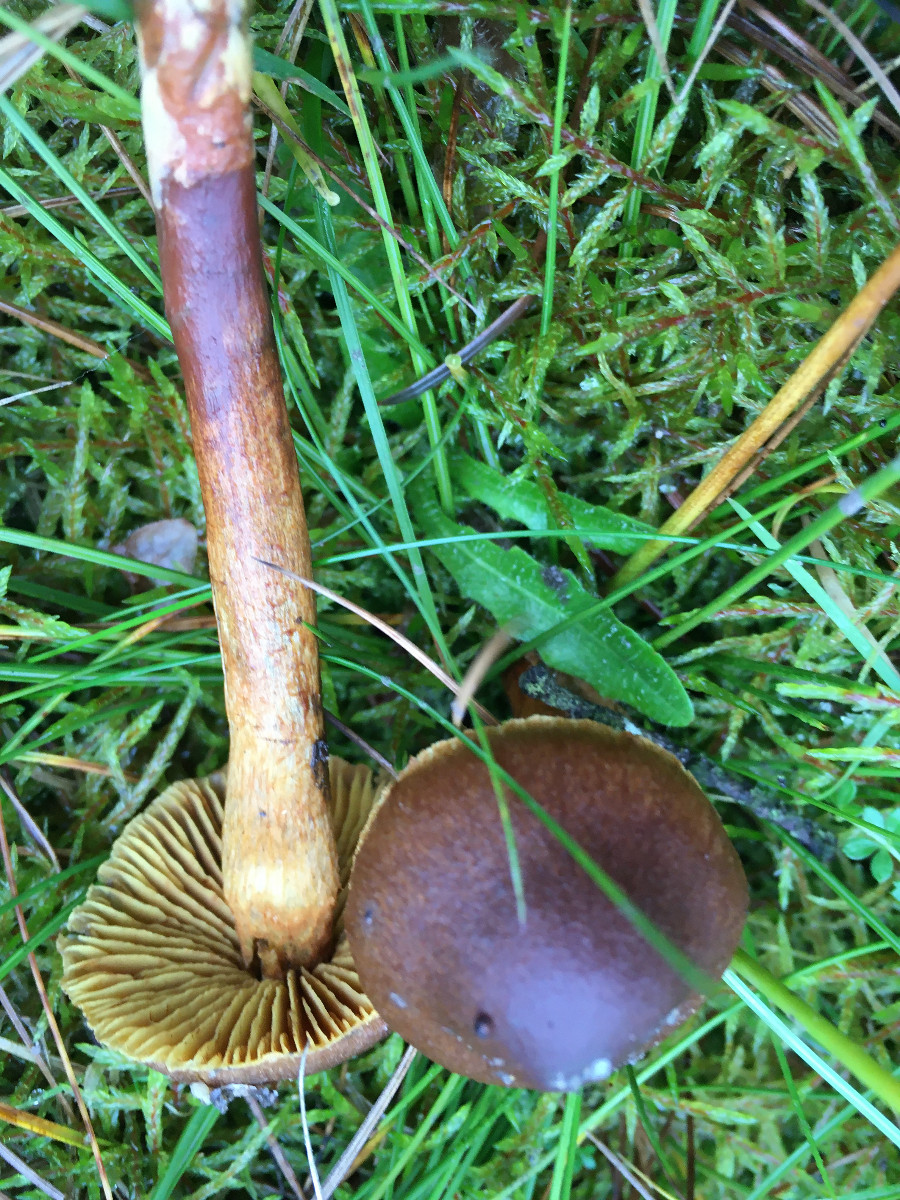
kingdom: Fungi
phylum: Basidiomycota
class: Agaricomycetes
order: Agaricales
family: Cortinariaceae
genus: Cortinarius
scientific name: Cortinarius
